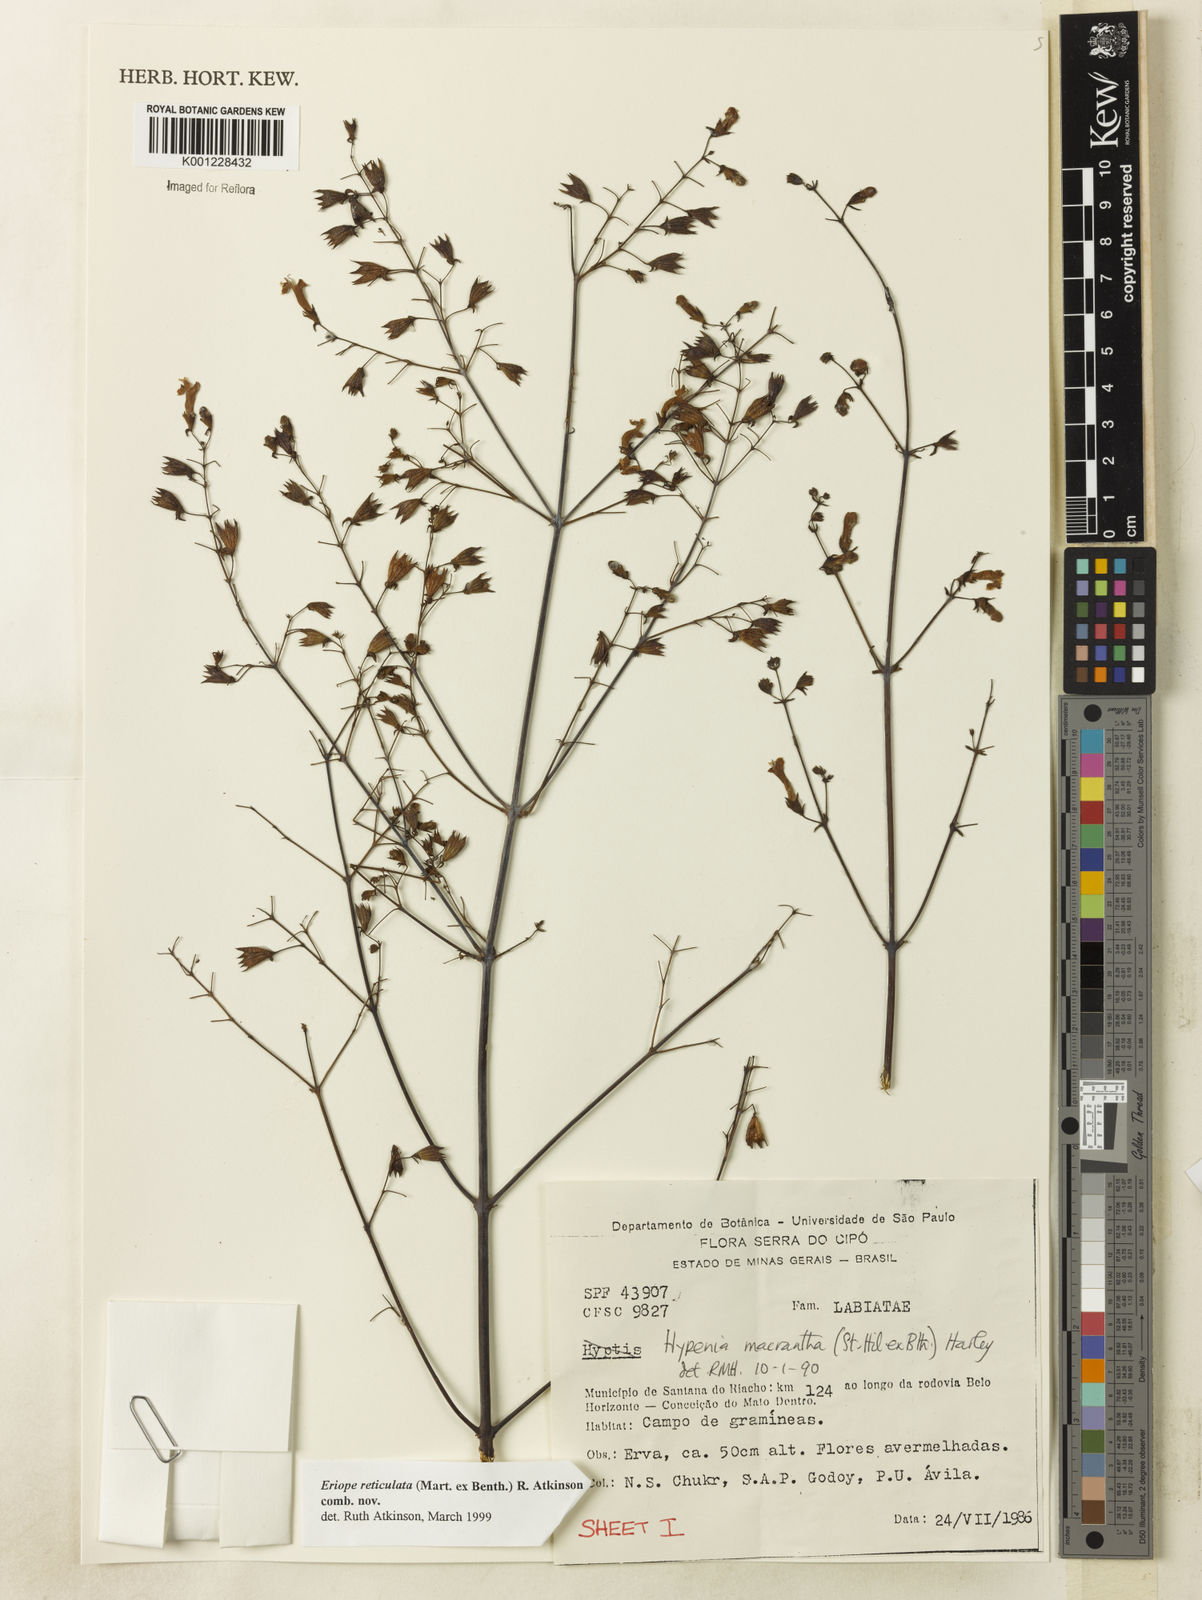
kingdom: Plantae
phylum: Tracheophyta
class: Magnoliopsida
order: Lamiales
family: Lamiaceae
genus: Hypenia
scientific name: Hypenia reticulata
